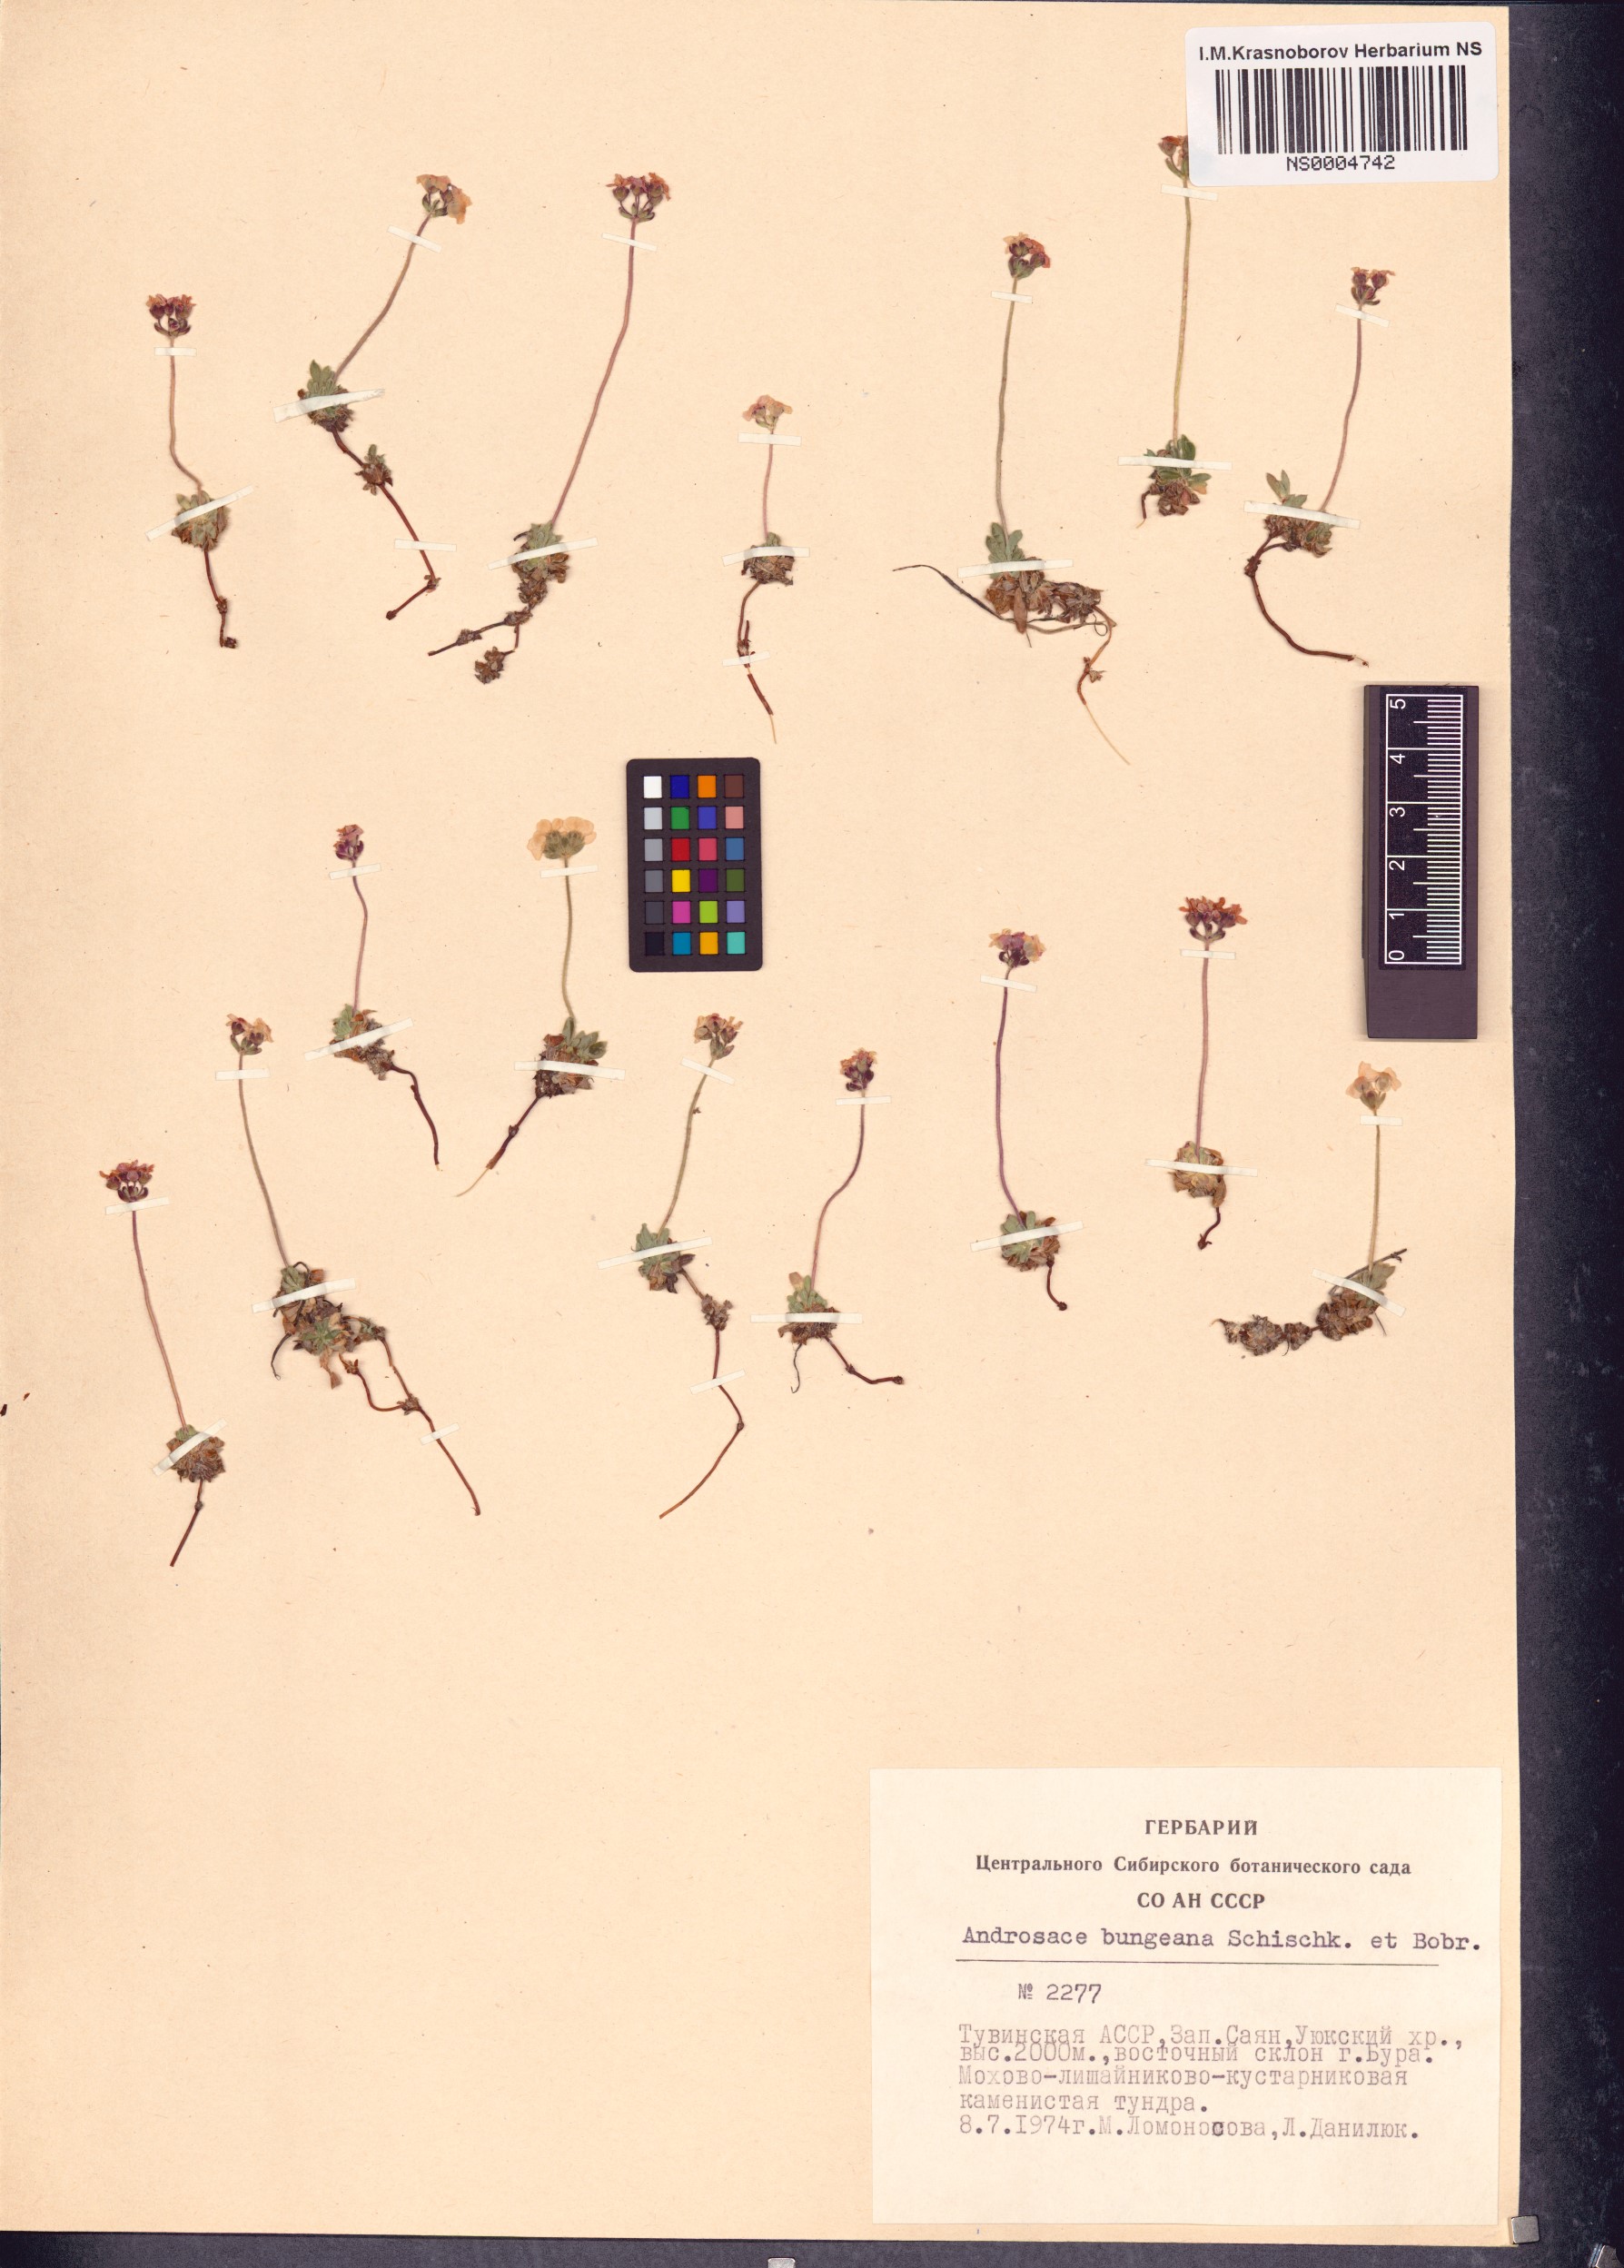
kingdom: Plantae
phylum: Tracheophyta
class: Magnoliopsida
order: Ericales
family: Primulaceae
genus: Androsace
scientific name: Androsace bungeana
